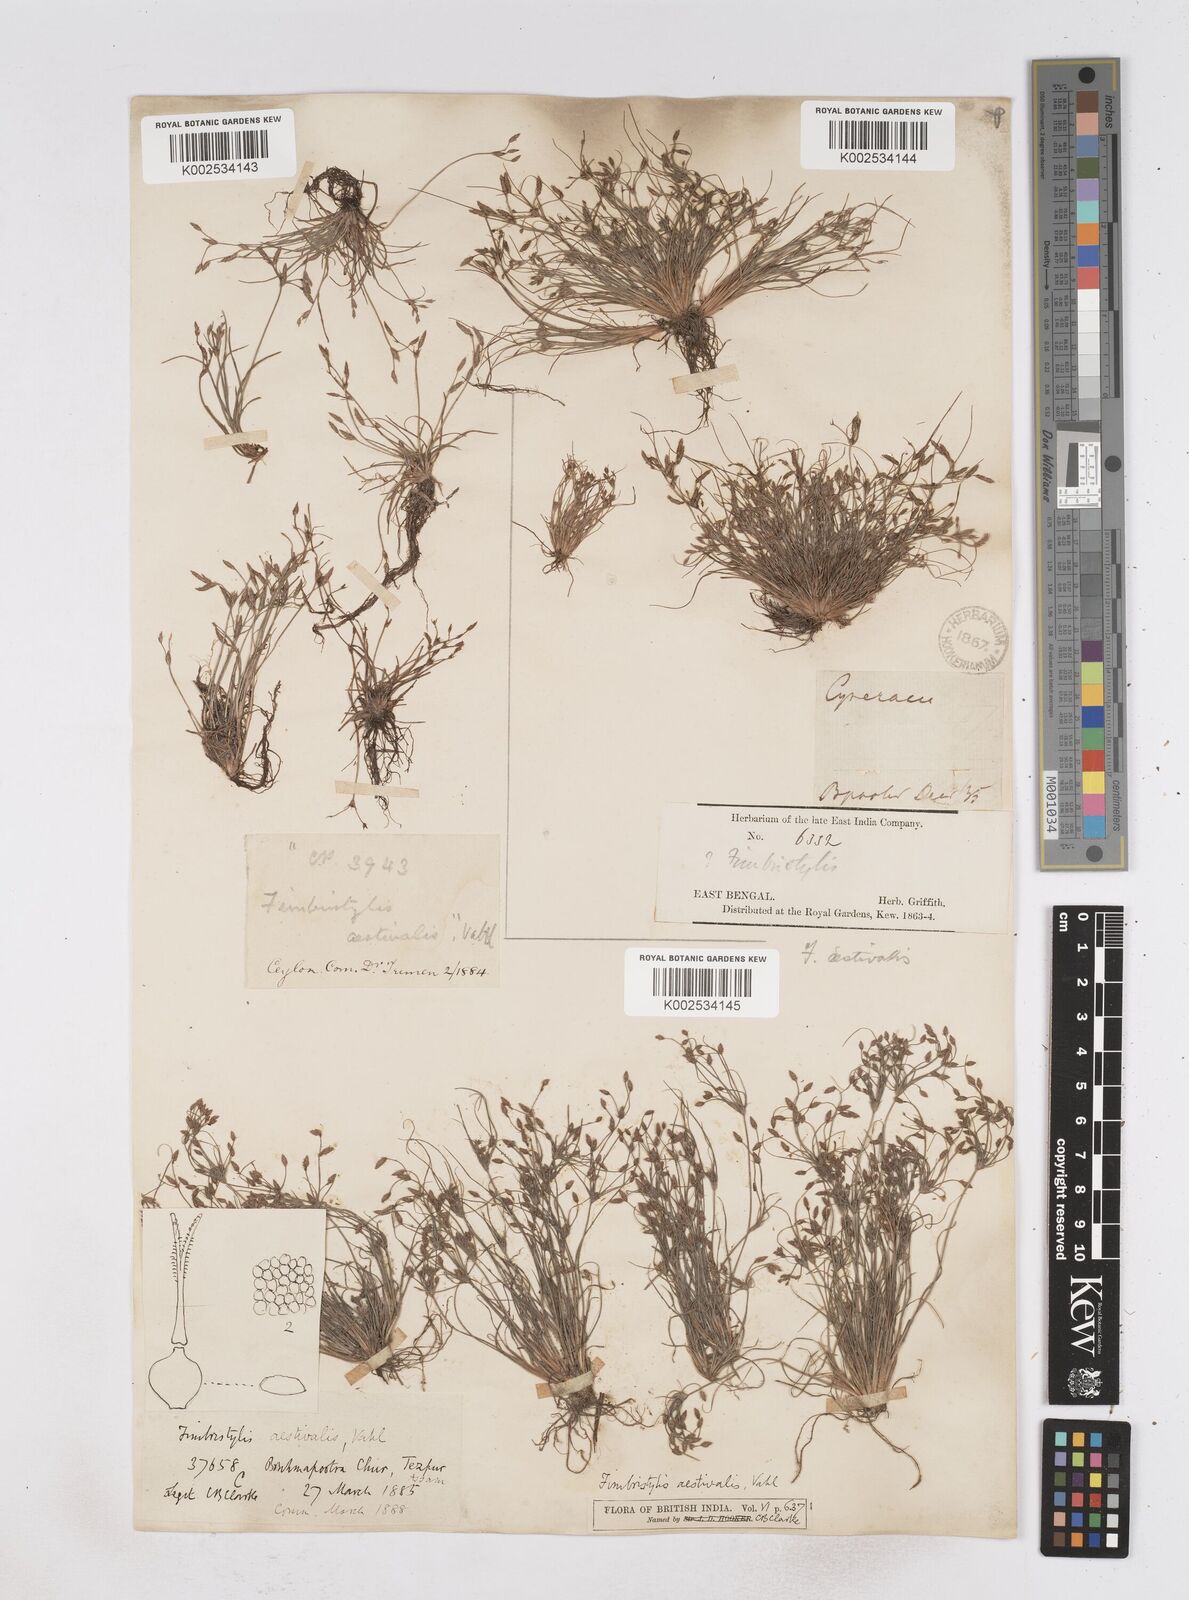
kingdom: Plantae
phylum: Tracheophyta
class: Liliopsida
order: Poales
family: Cyperaceae
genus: Fimbristylis
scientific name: Fimbristylis aestivalis
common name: Summer fimbry
